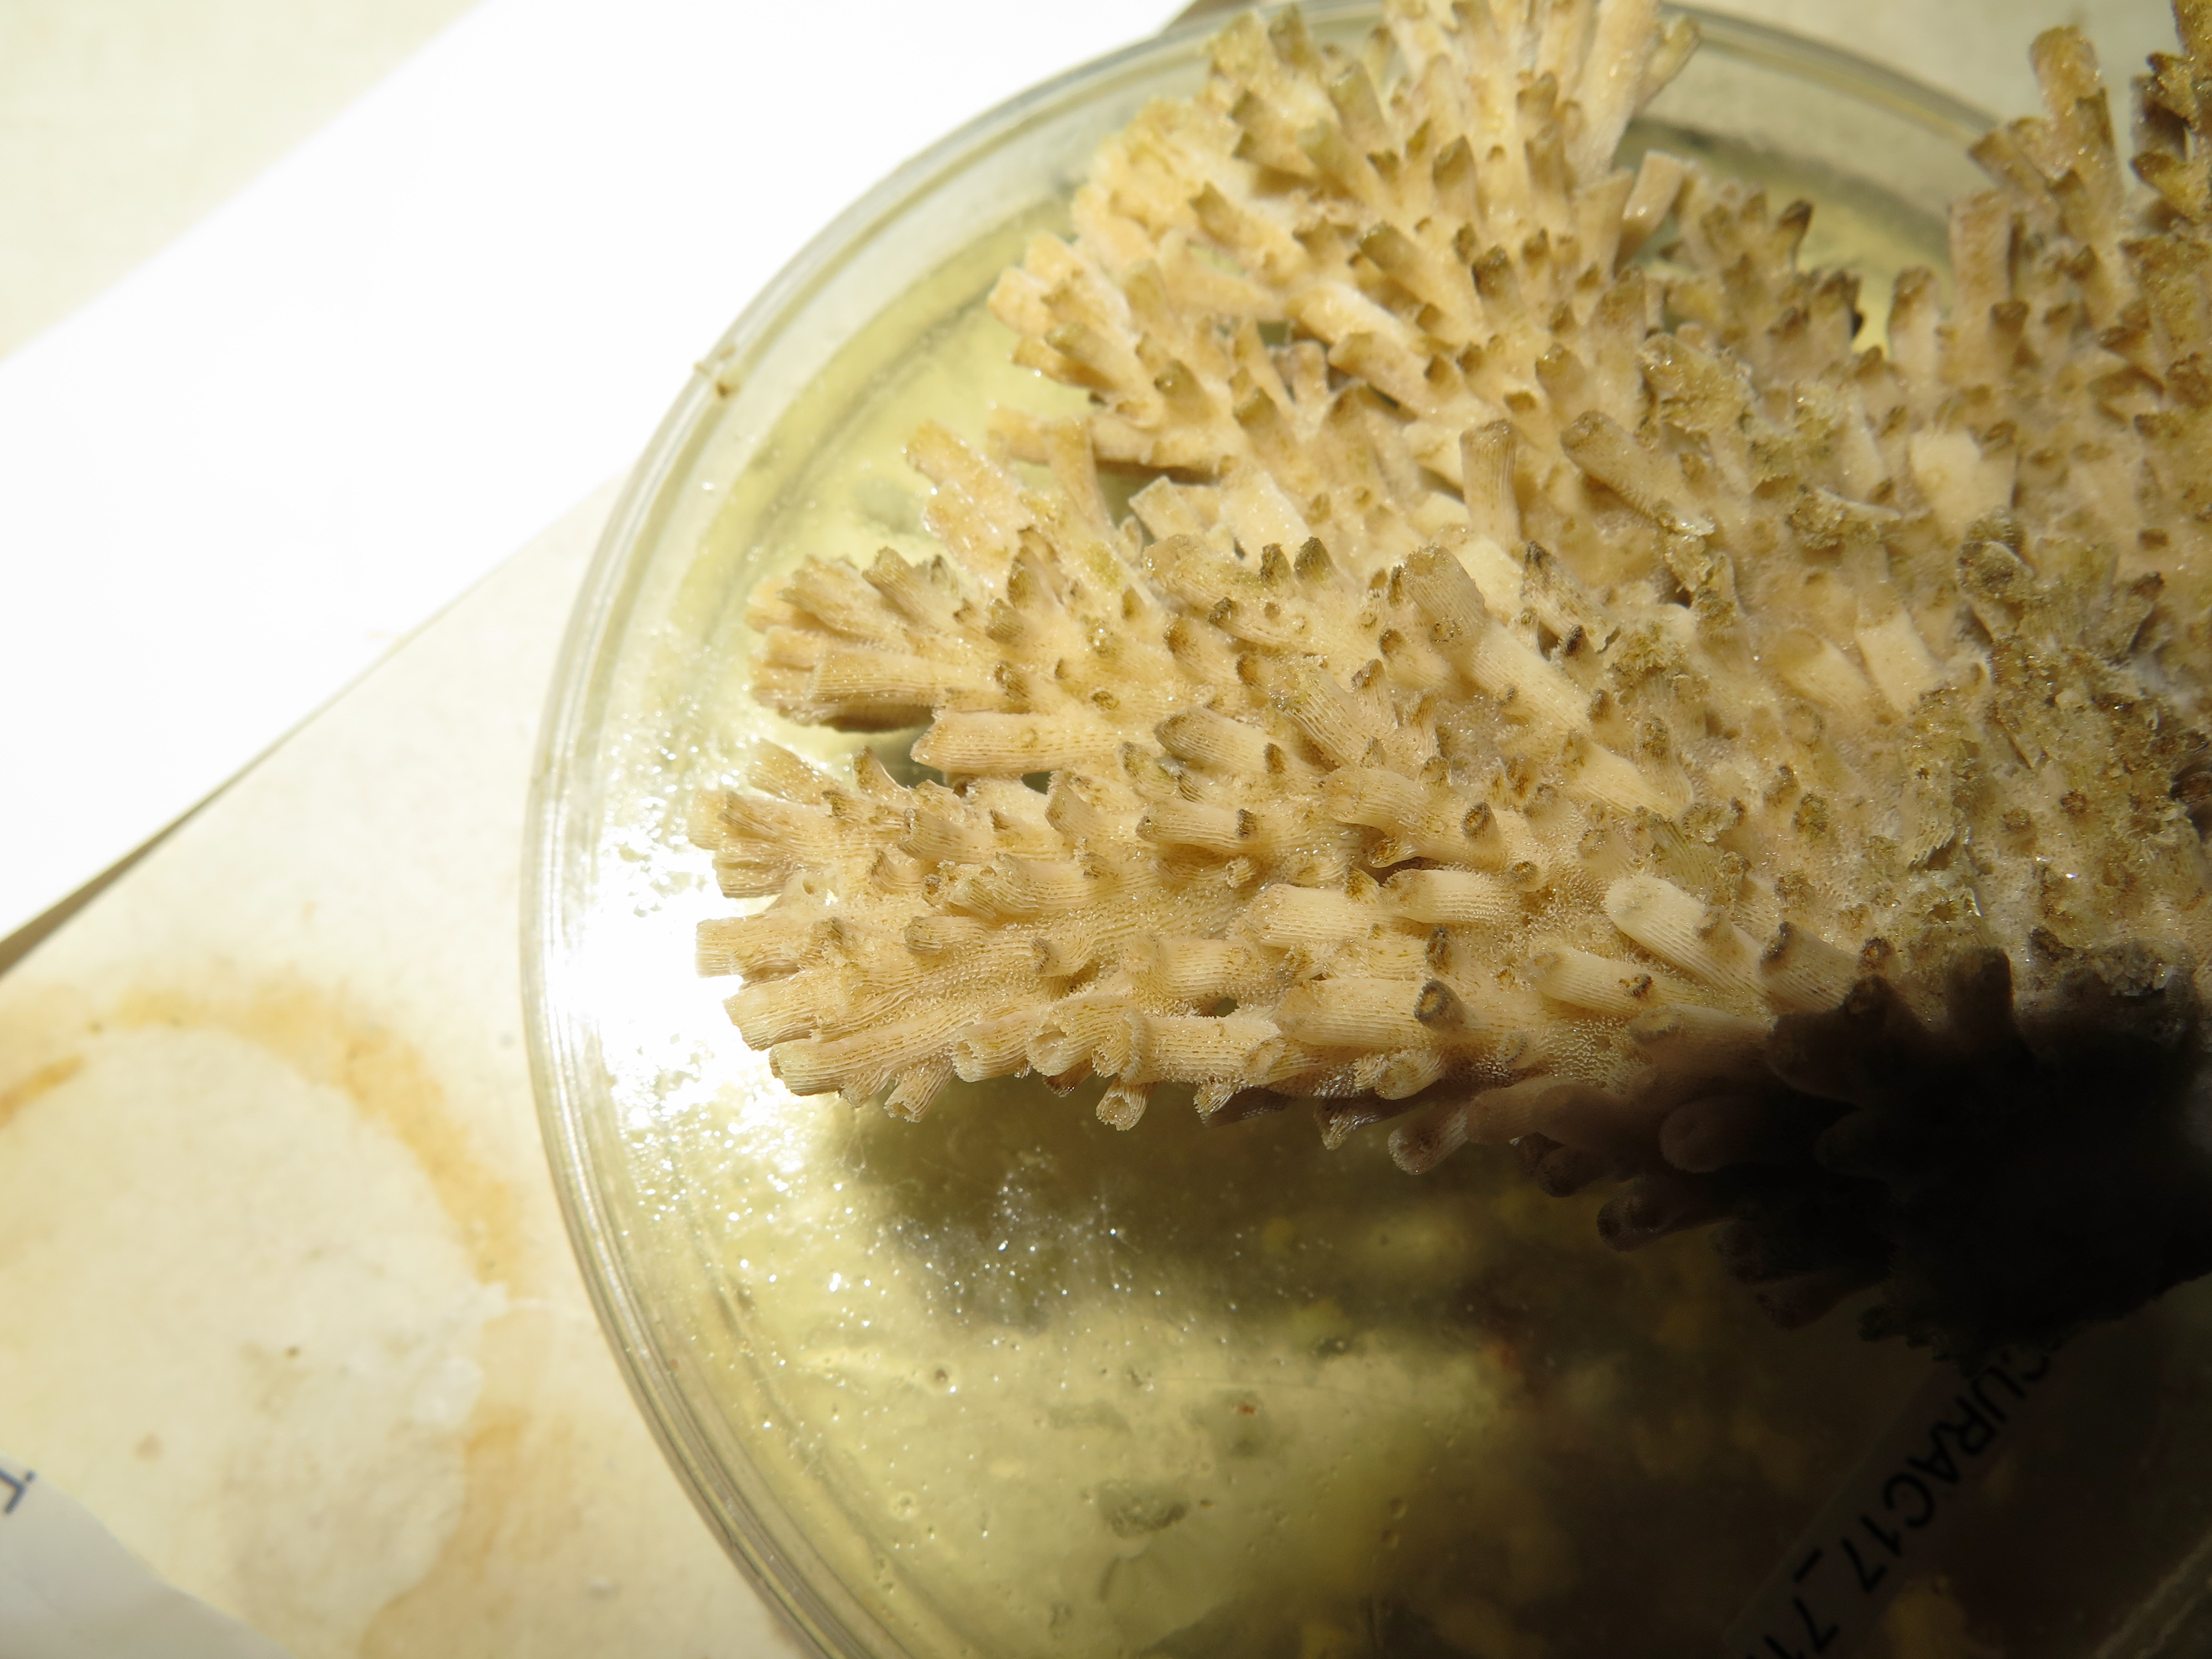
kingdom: Animalia
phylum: Cnidaria
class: Anthozoa
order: Scleractinia
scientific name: Scleractinia
